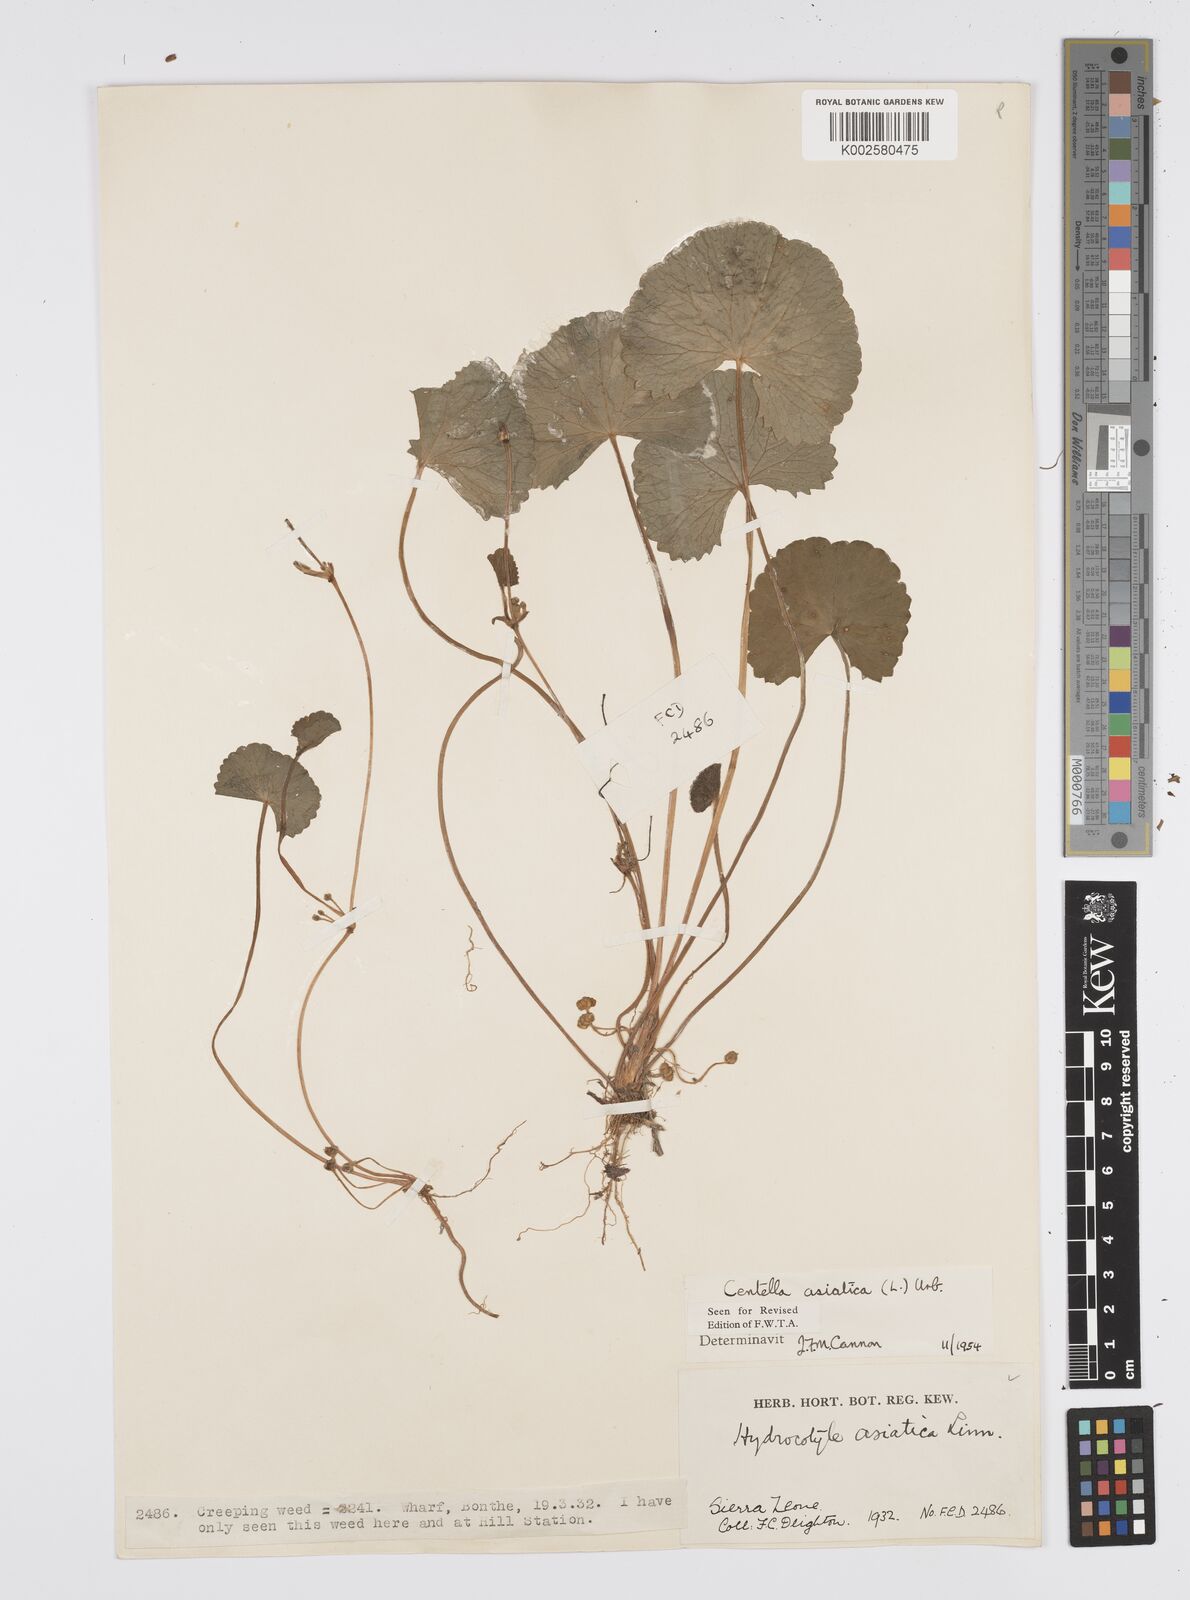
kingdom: Plantae
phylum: Tracheophyta
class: Magnoliopsida
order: Apiales
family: Apiaceae
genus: Centella
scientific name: Centella asiatica
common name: Spadeleaf
